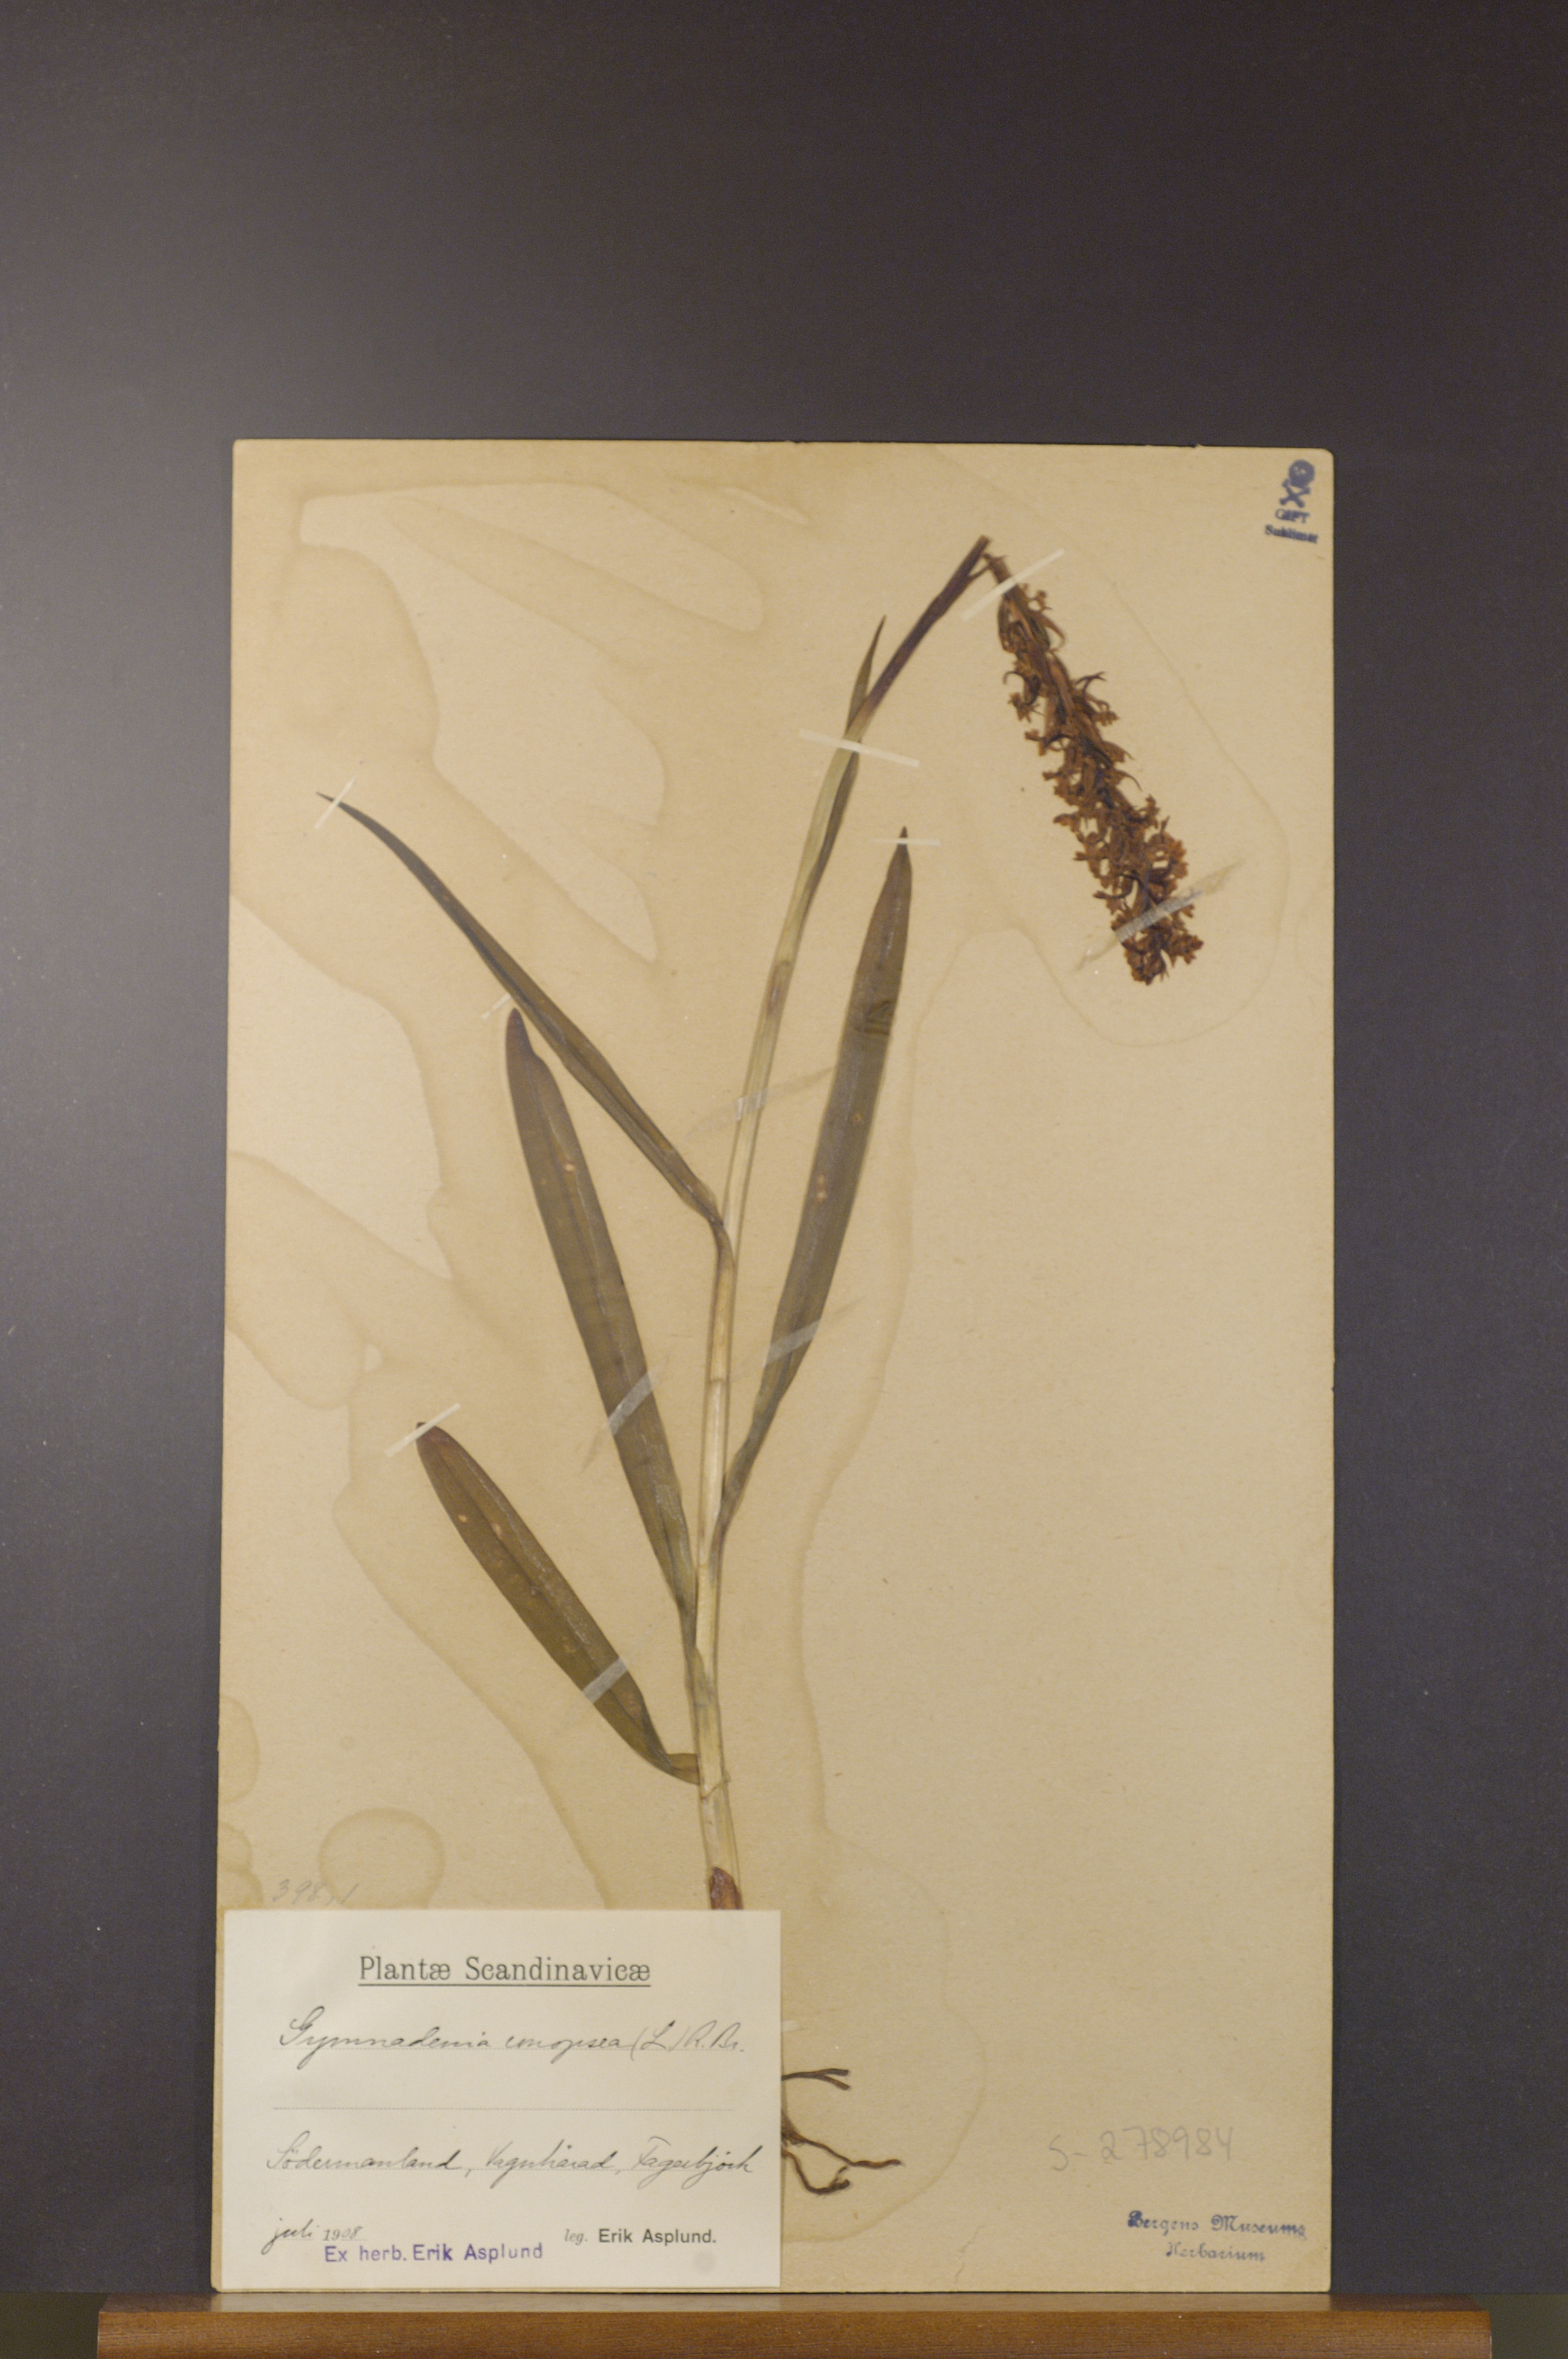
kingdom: Plantae
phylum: Tracheophyta
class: Liliopsida
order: Asparagales
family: Orchidaceae
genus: Gymnadenia
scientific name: Gymnadenia conopsea
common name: Fragrant orchid
